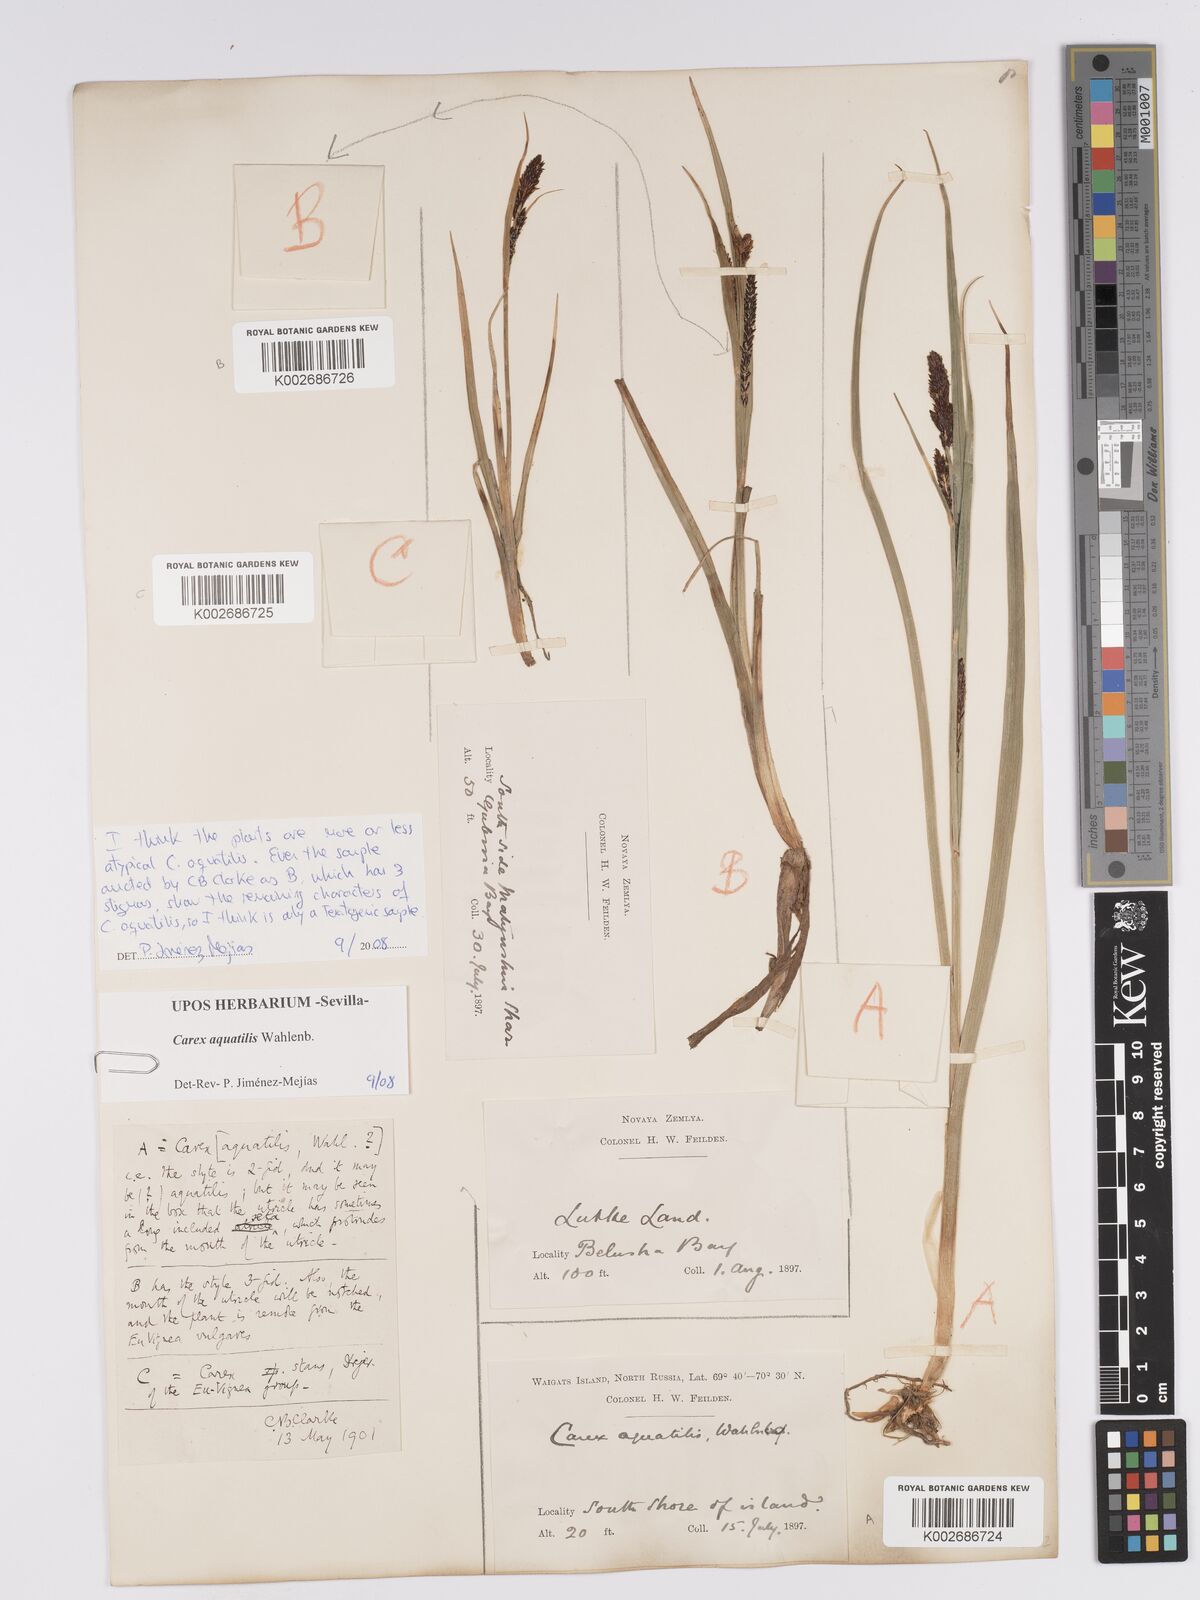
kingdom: Plantae
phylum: Tracheophyta
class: Liliopsida
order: Poales
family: Cyperaceae
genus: Carex
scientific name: Carex aquatilis
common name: Water sedge
